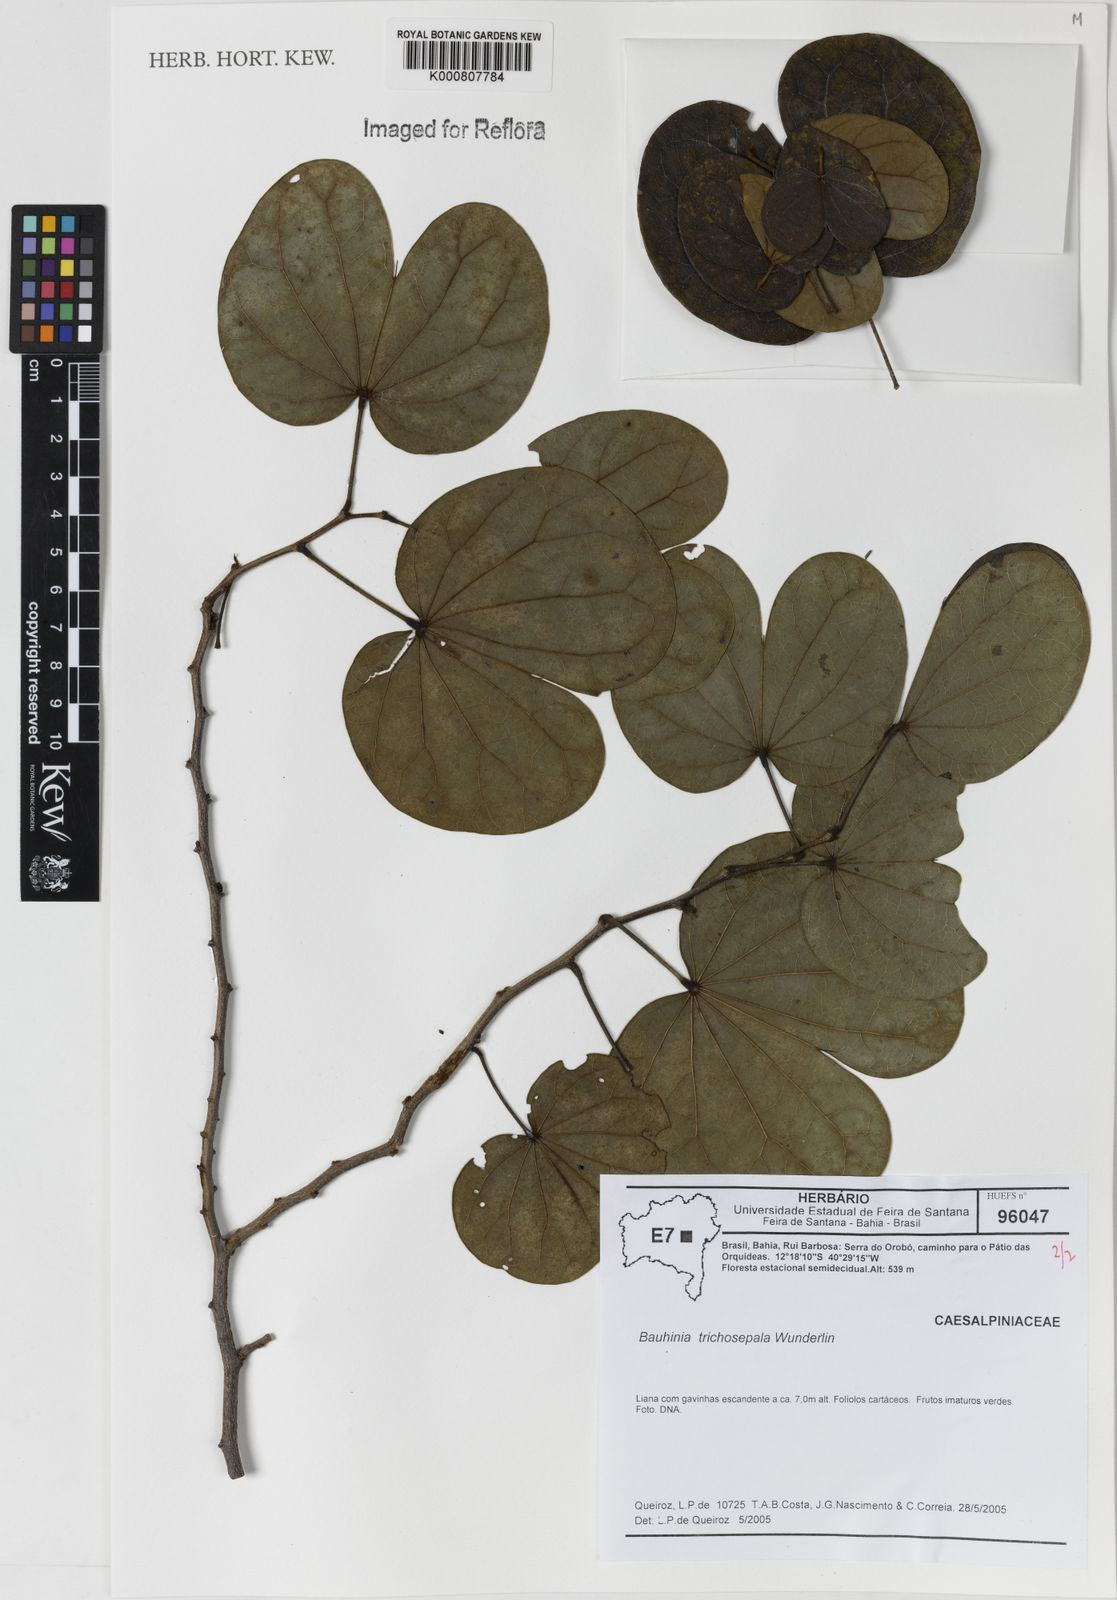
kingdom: Plantae
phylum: Tracheophyta
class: Magnoliopsida
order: Fabales
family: Fabaceae
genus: Schnella
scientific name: Schnella trichosepala
